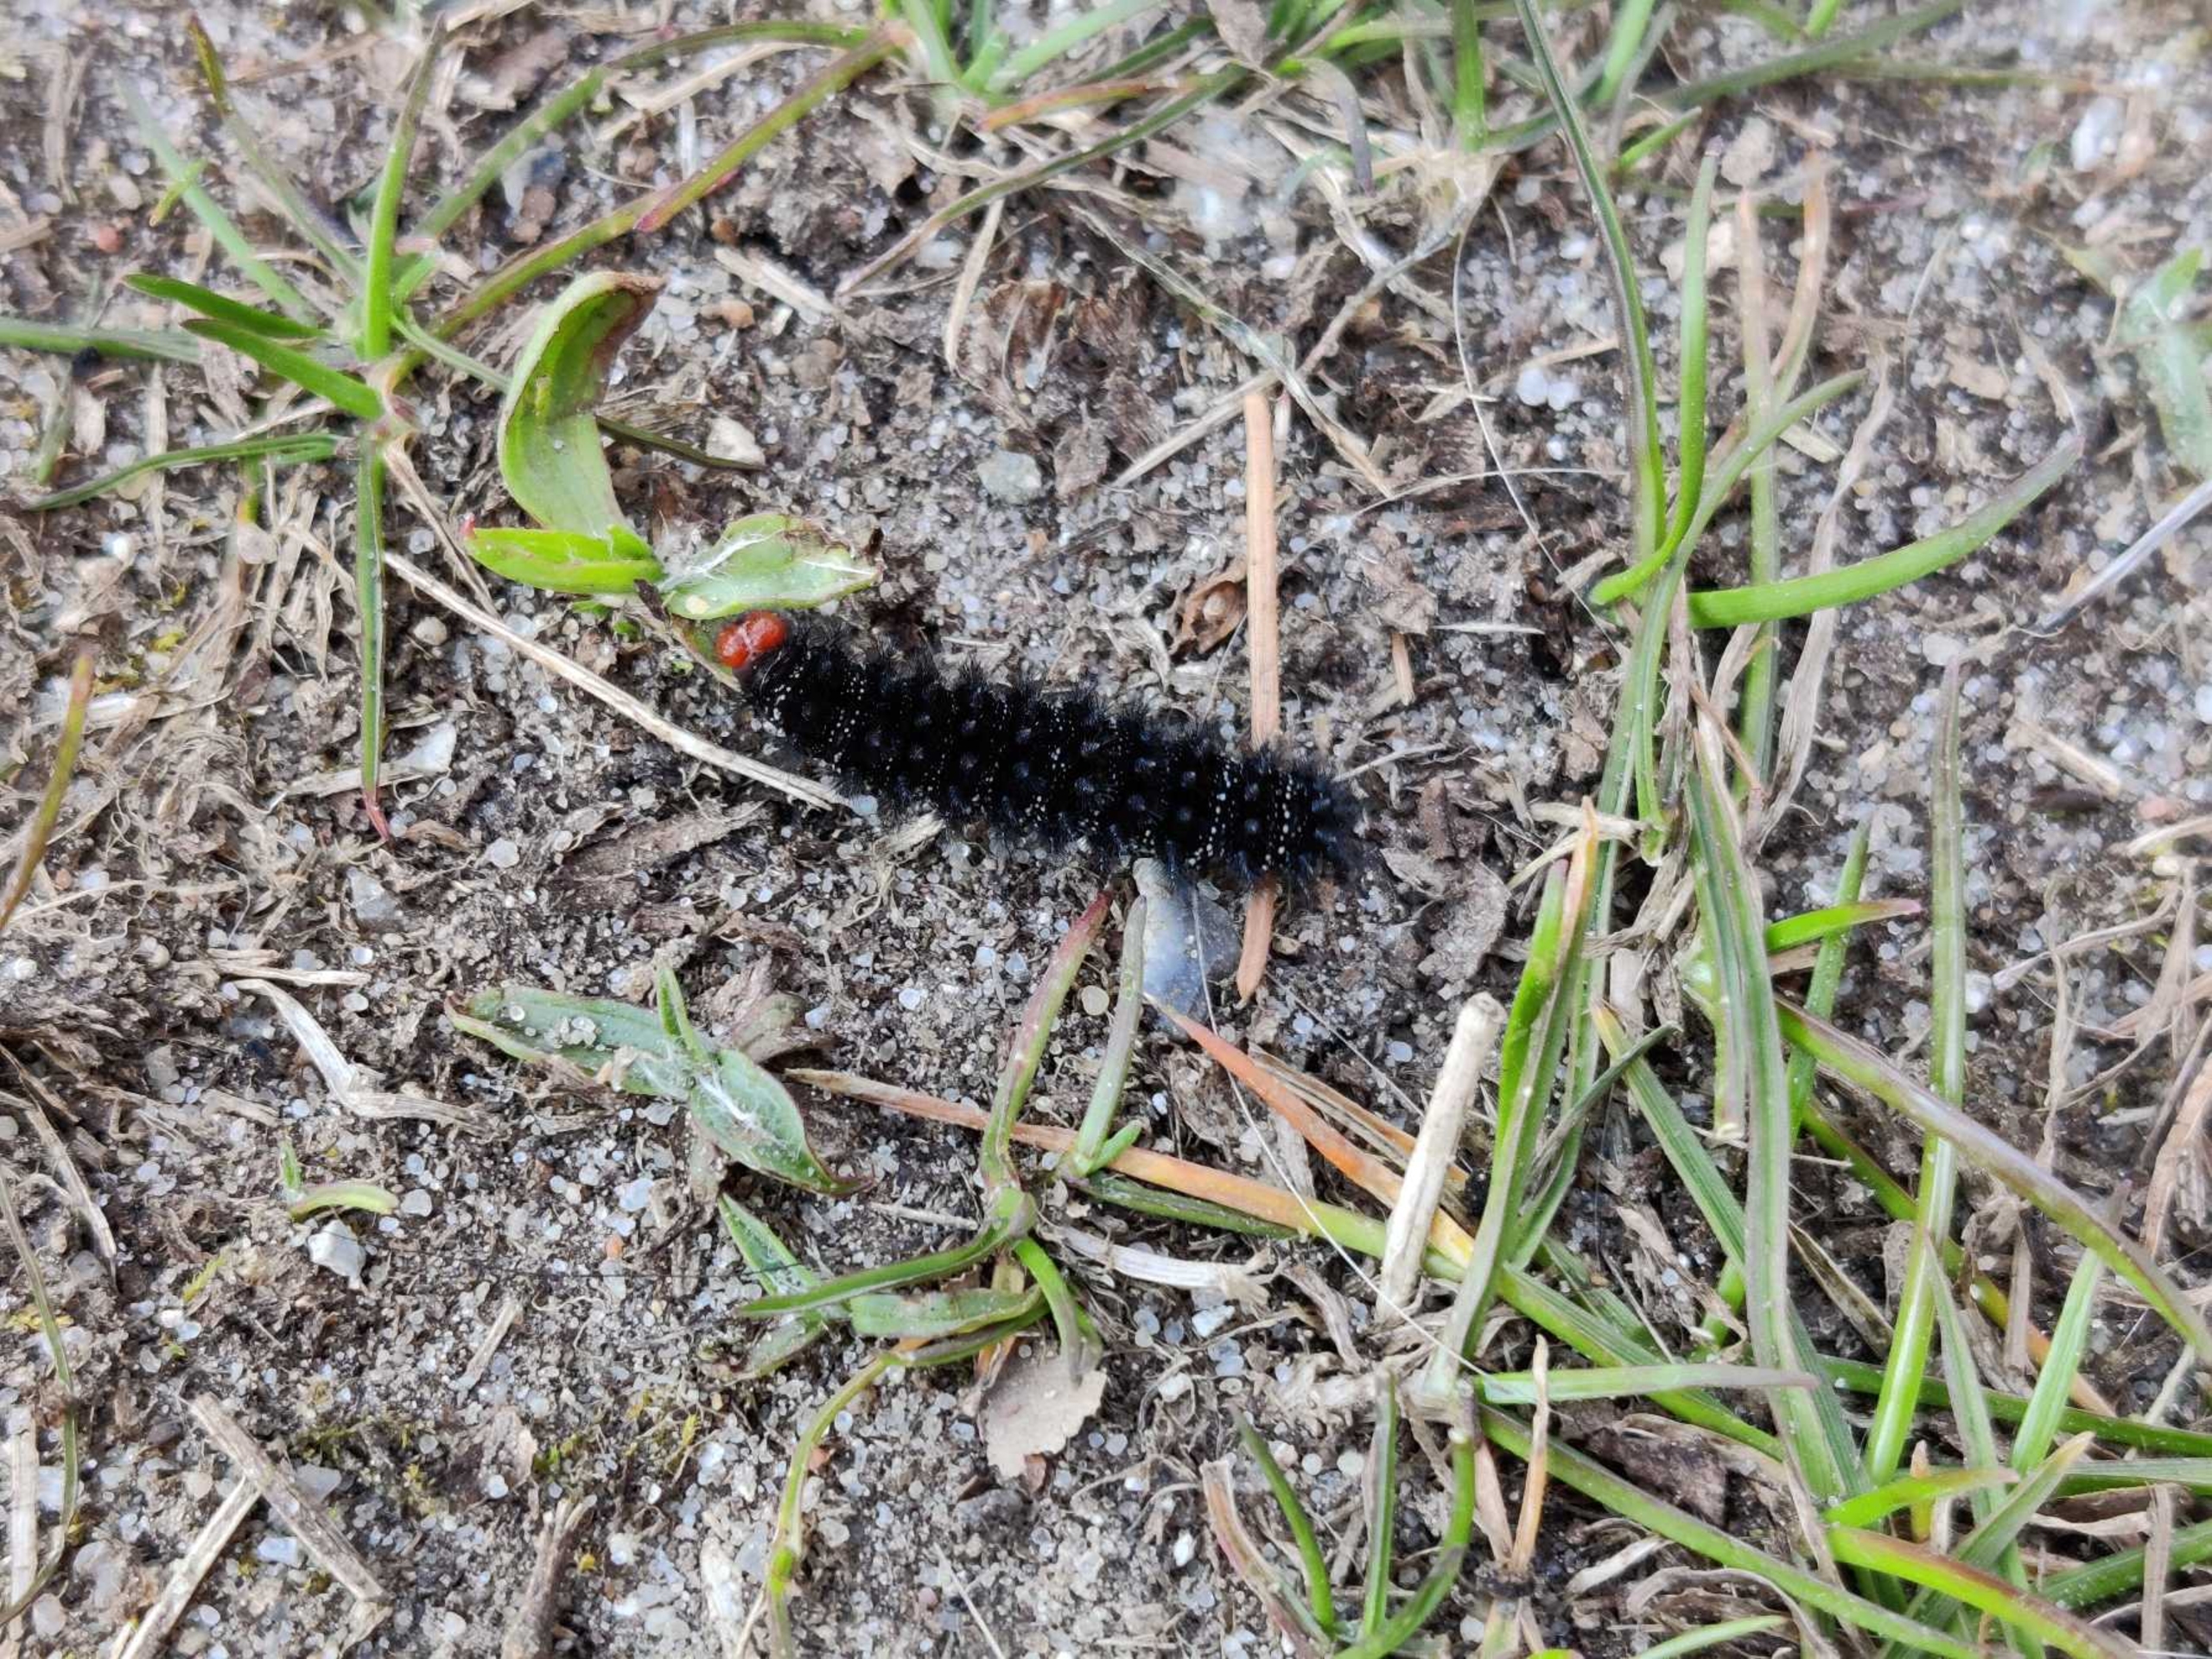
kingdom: Animalia
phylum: Arthropoda
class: Insecta
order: Lepidoptera
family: Nymphalidae
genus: Melitaea
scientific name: Melitaea cinxia
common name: Okkergul pletvinge
